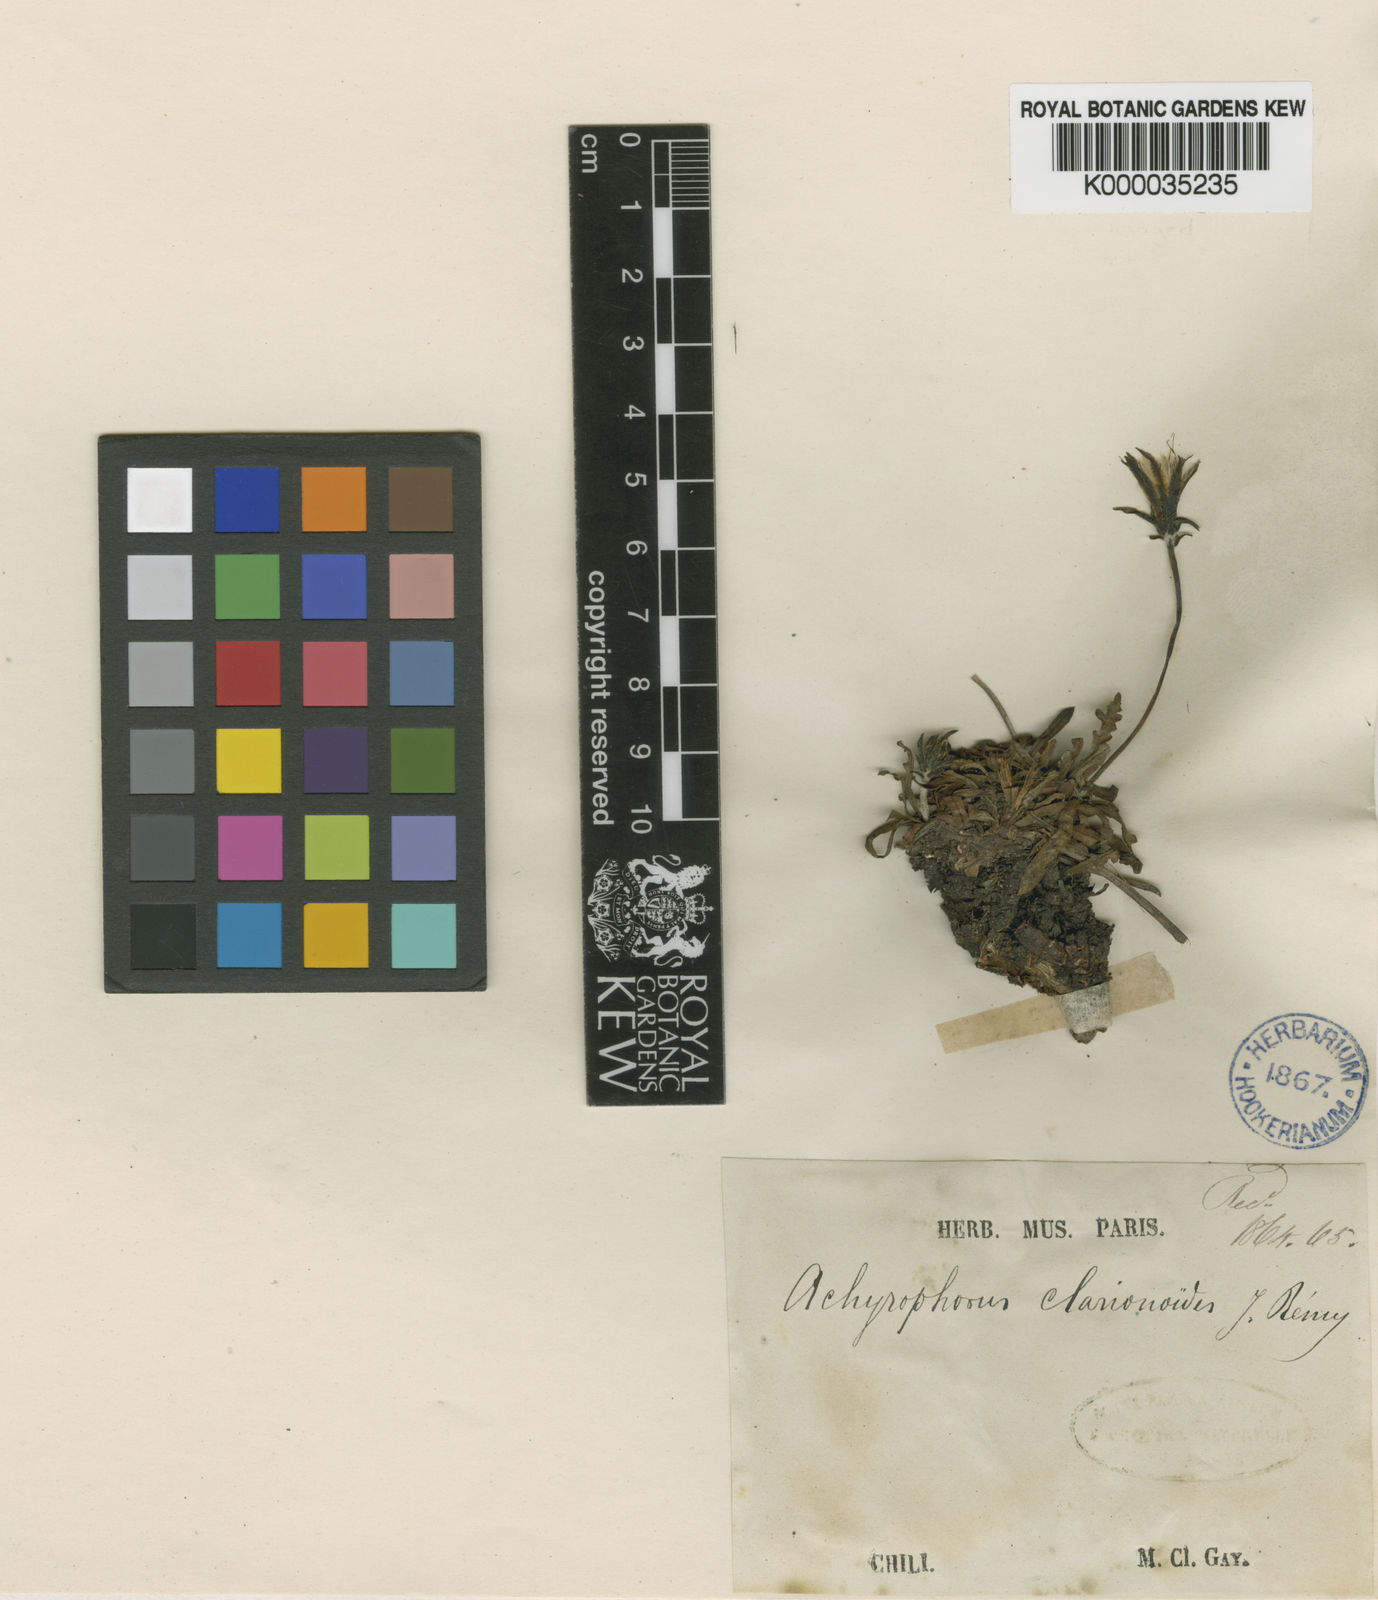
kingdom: Plantae
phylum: Tracheophyta
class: Magnoliopsida
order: Asterales
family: Asteraceae
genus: Hypochaeris
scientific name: Hypochaeris
